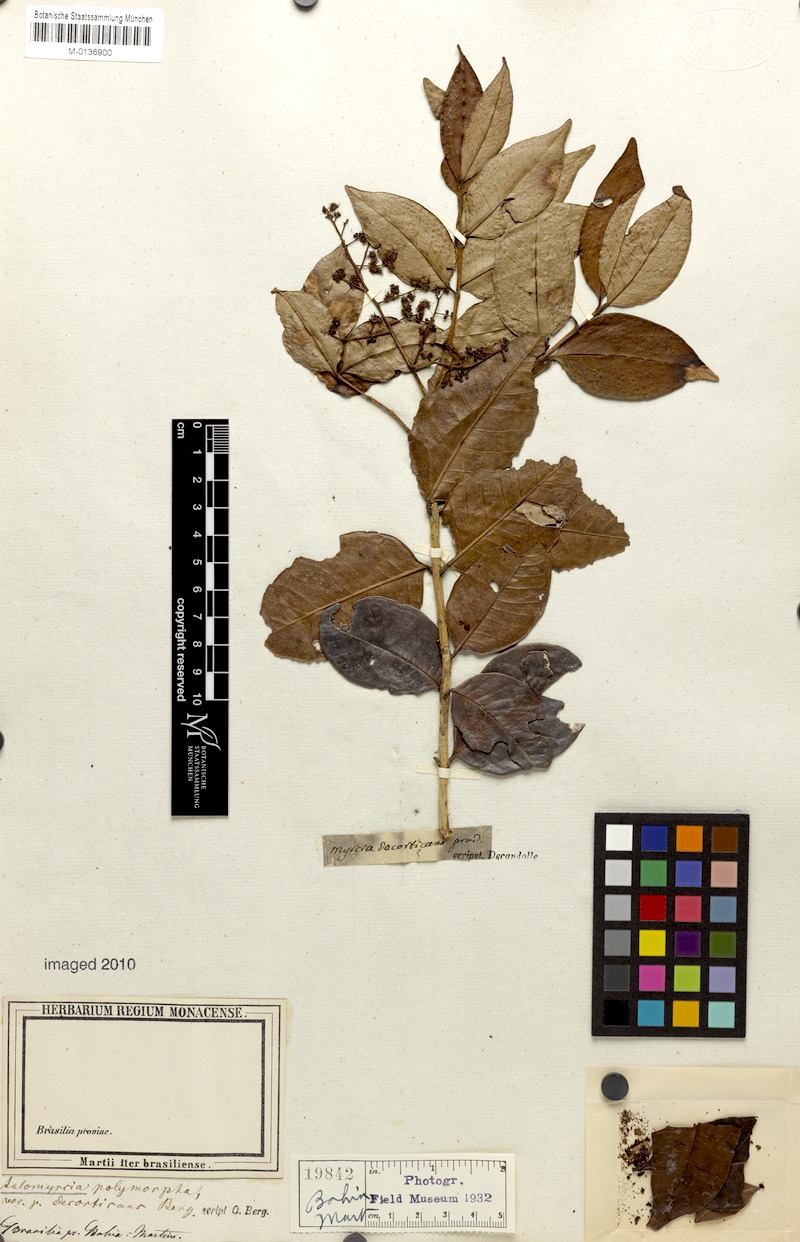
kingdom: Plantae
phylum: Tracheophyta
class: Magnoliopsida
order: Myrtales
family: Myrtaceae
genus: Myrcia
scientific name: Myrcia decorticans
